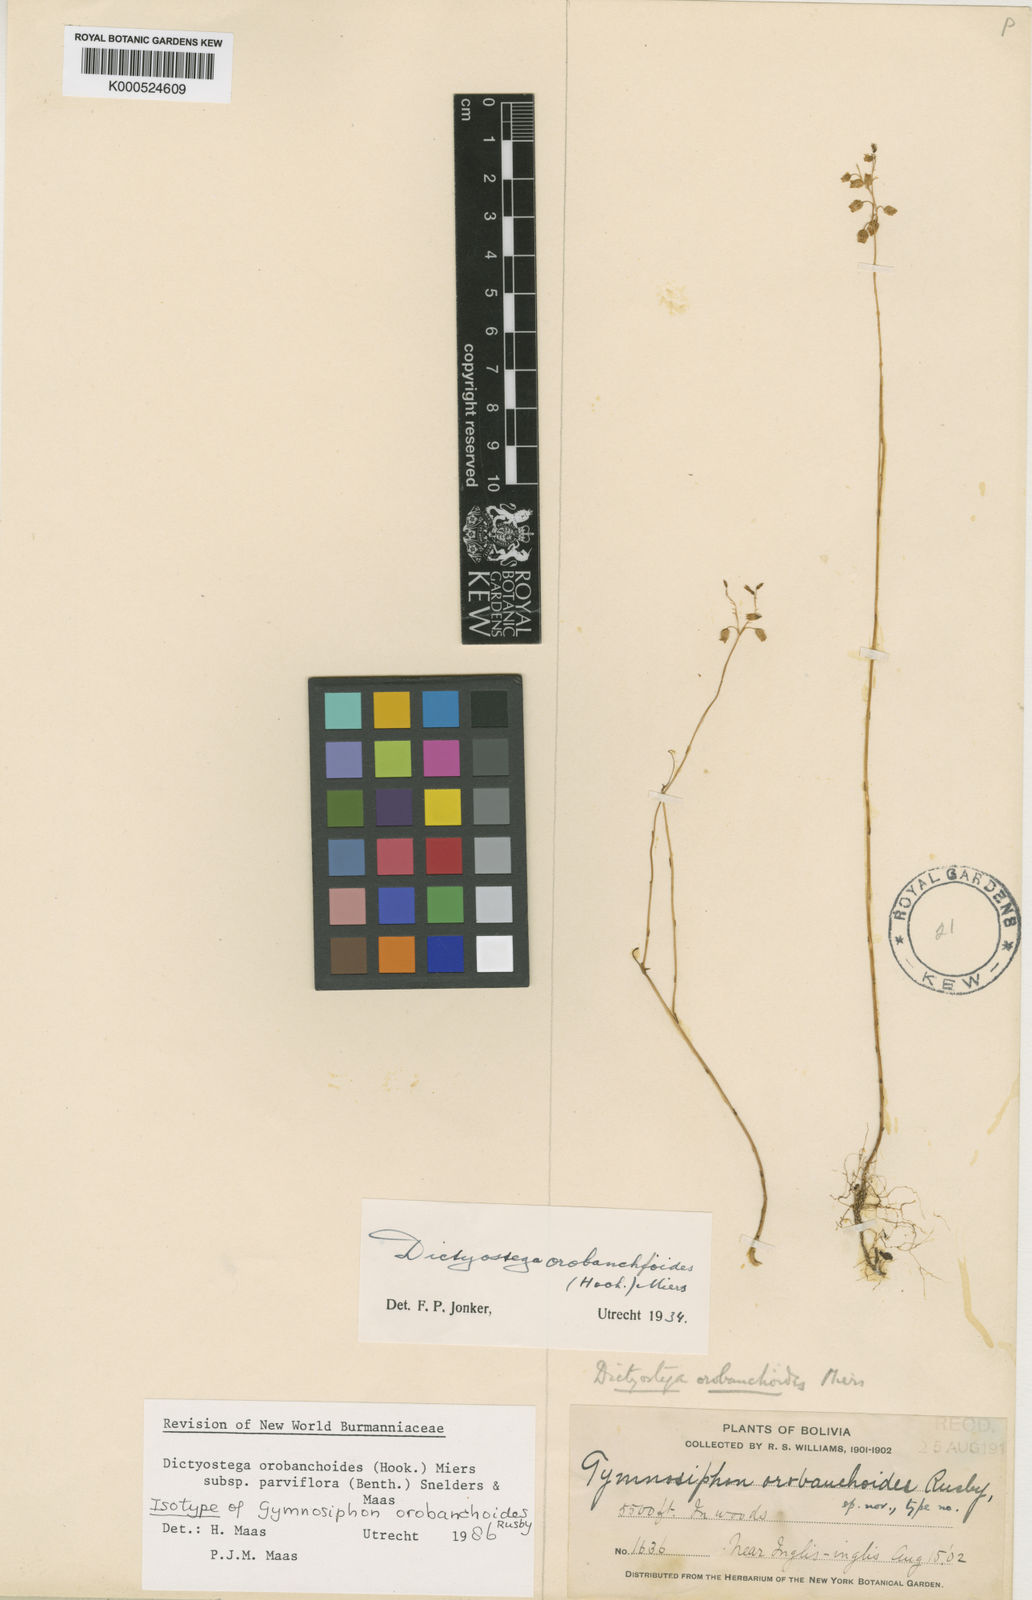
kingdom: Plantae
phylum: Tracheophyta
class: Liliopsida
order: Dioscoreales
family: Burmanniaceae
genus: Dictyostega
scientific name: Dictyostega orobanchoides
